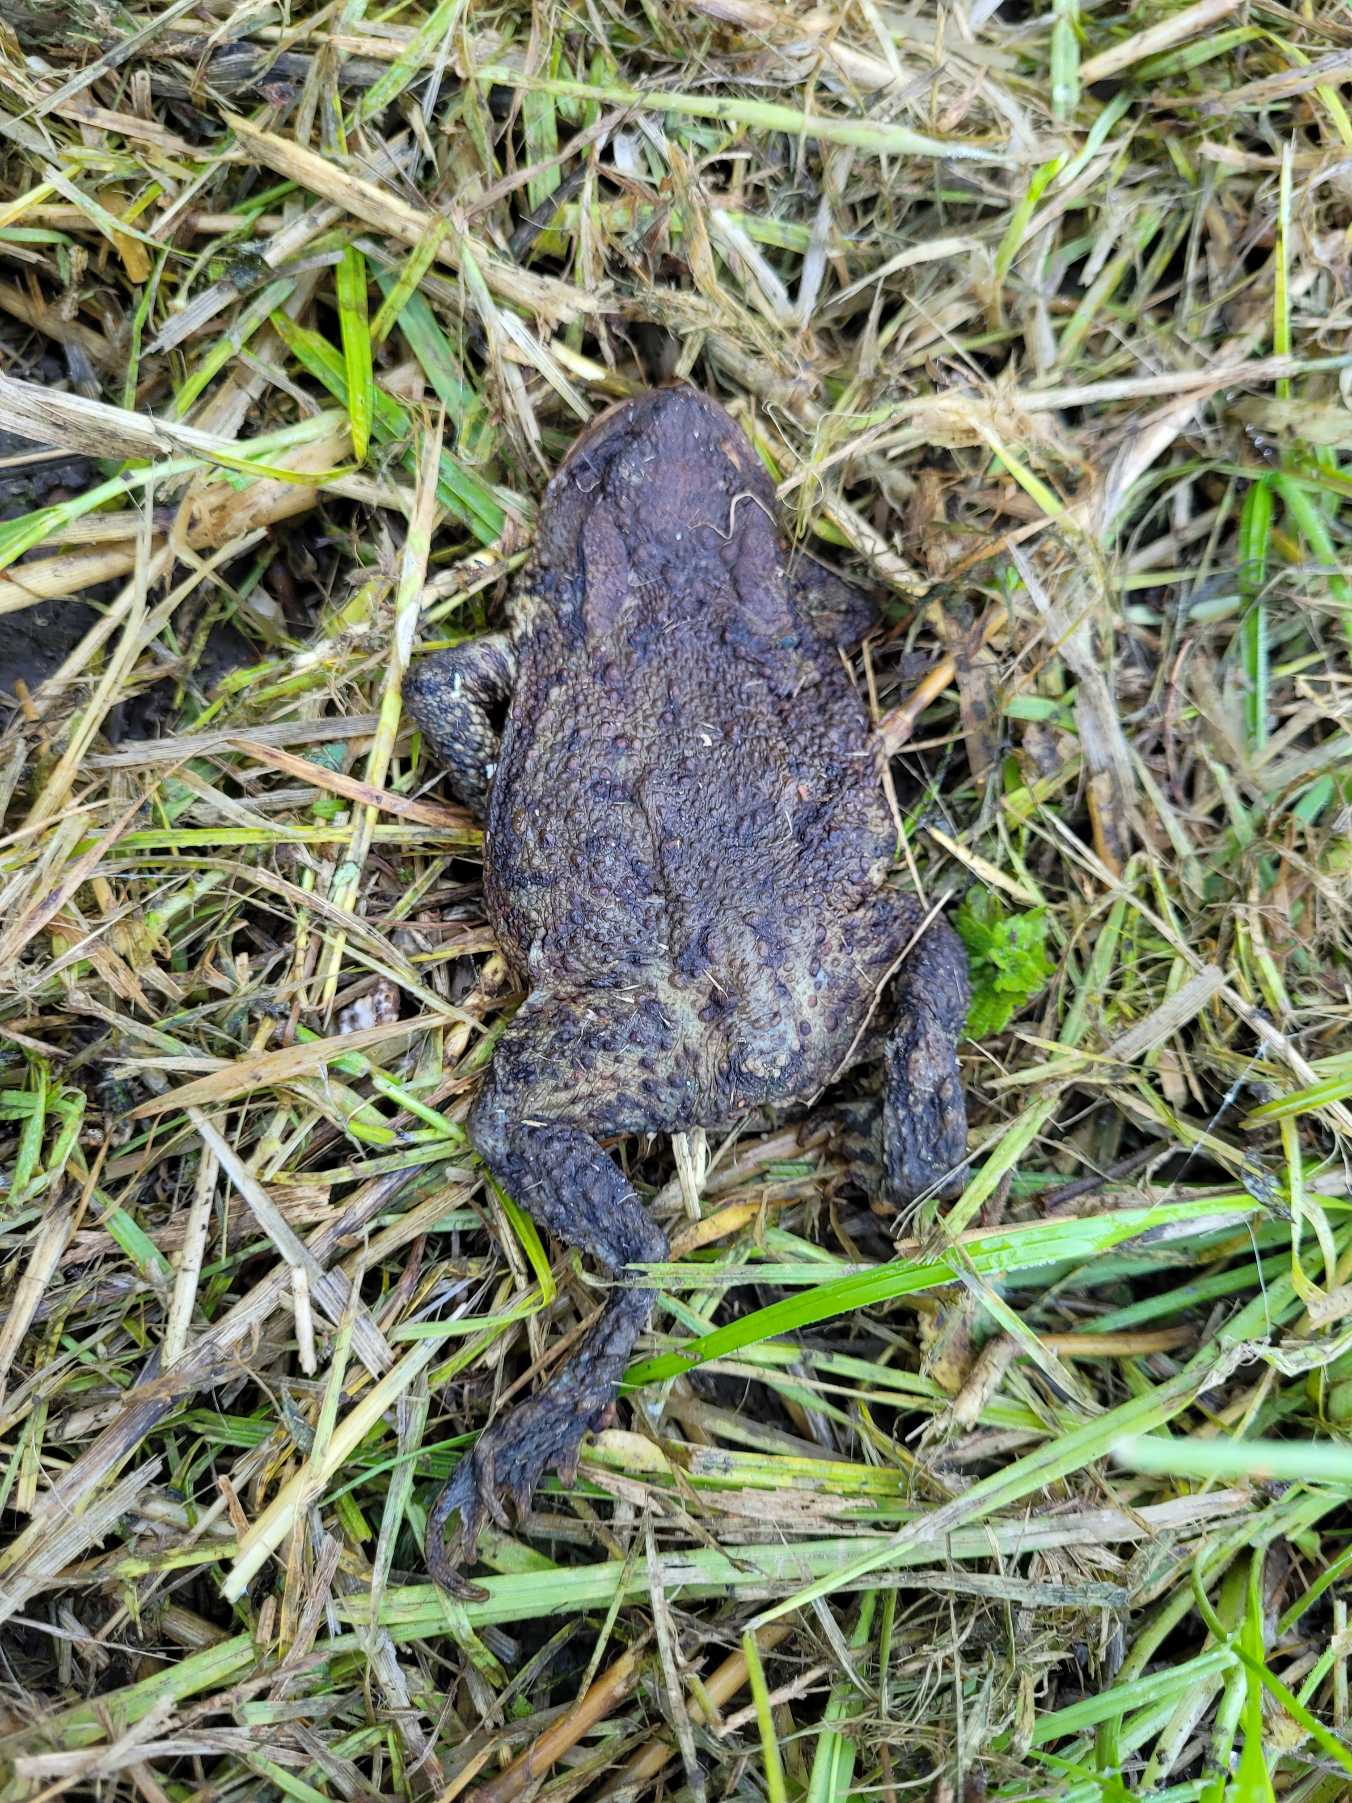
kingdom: Animalia
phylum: Chordata
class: Amphibia
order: Anura
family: Bufonidae
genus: Bufo
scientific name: Bufo bufo
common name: Skrubtudse
